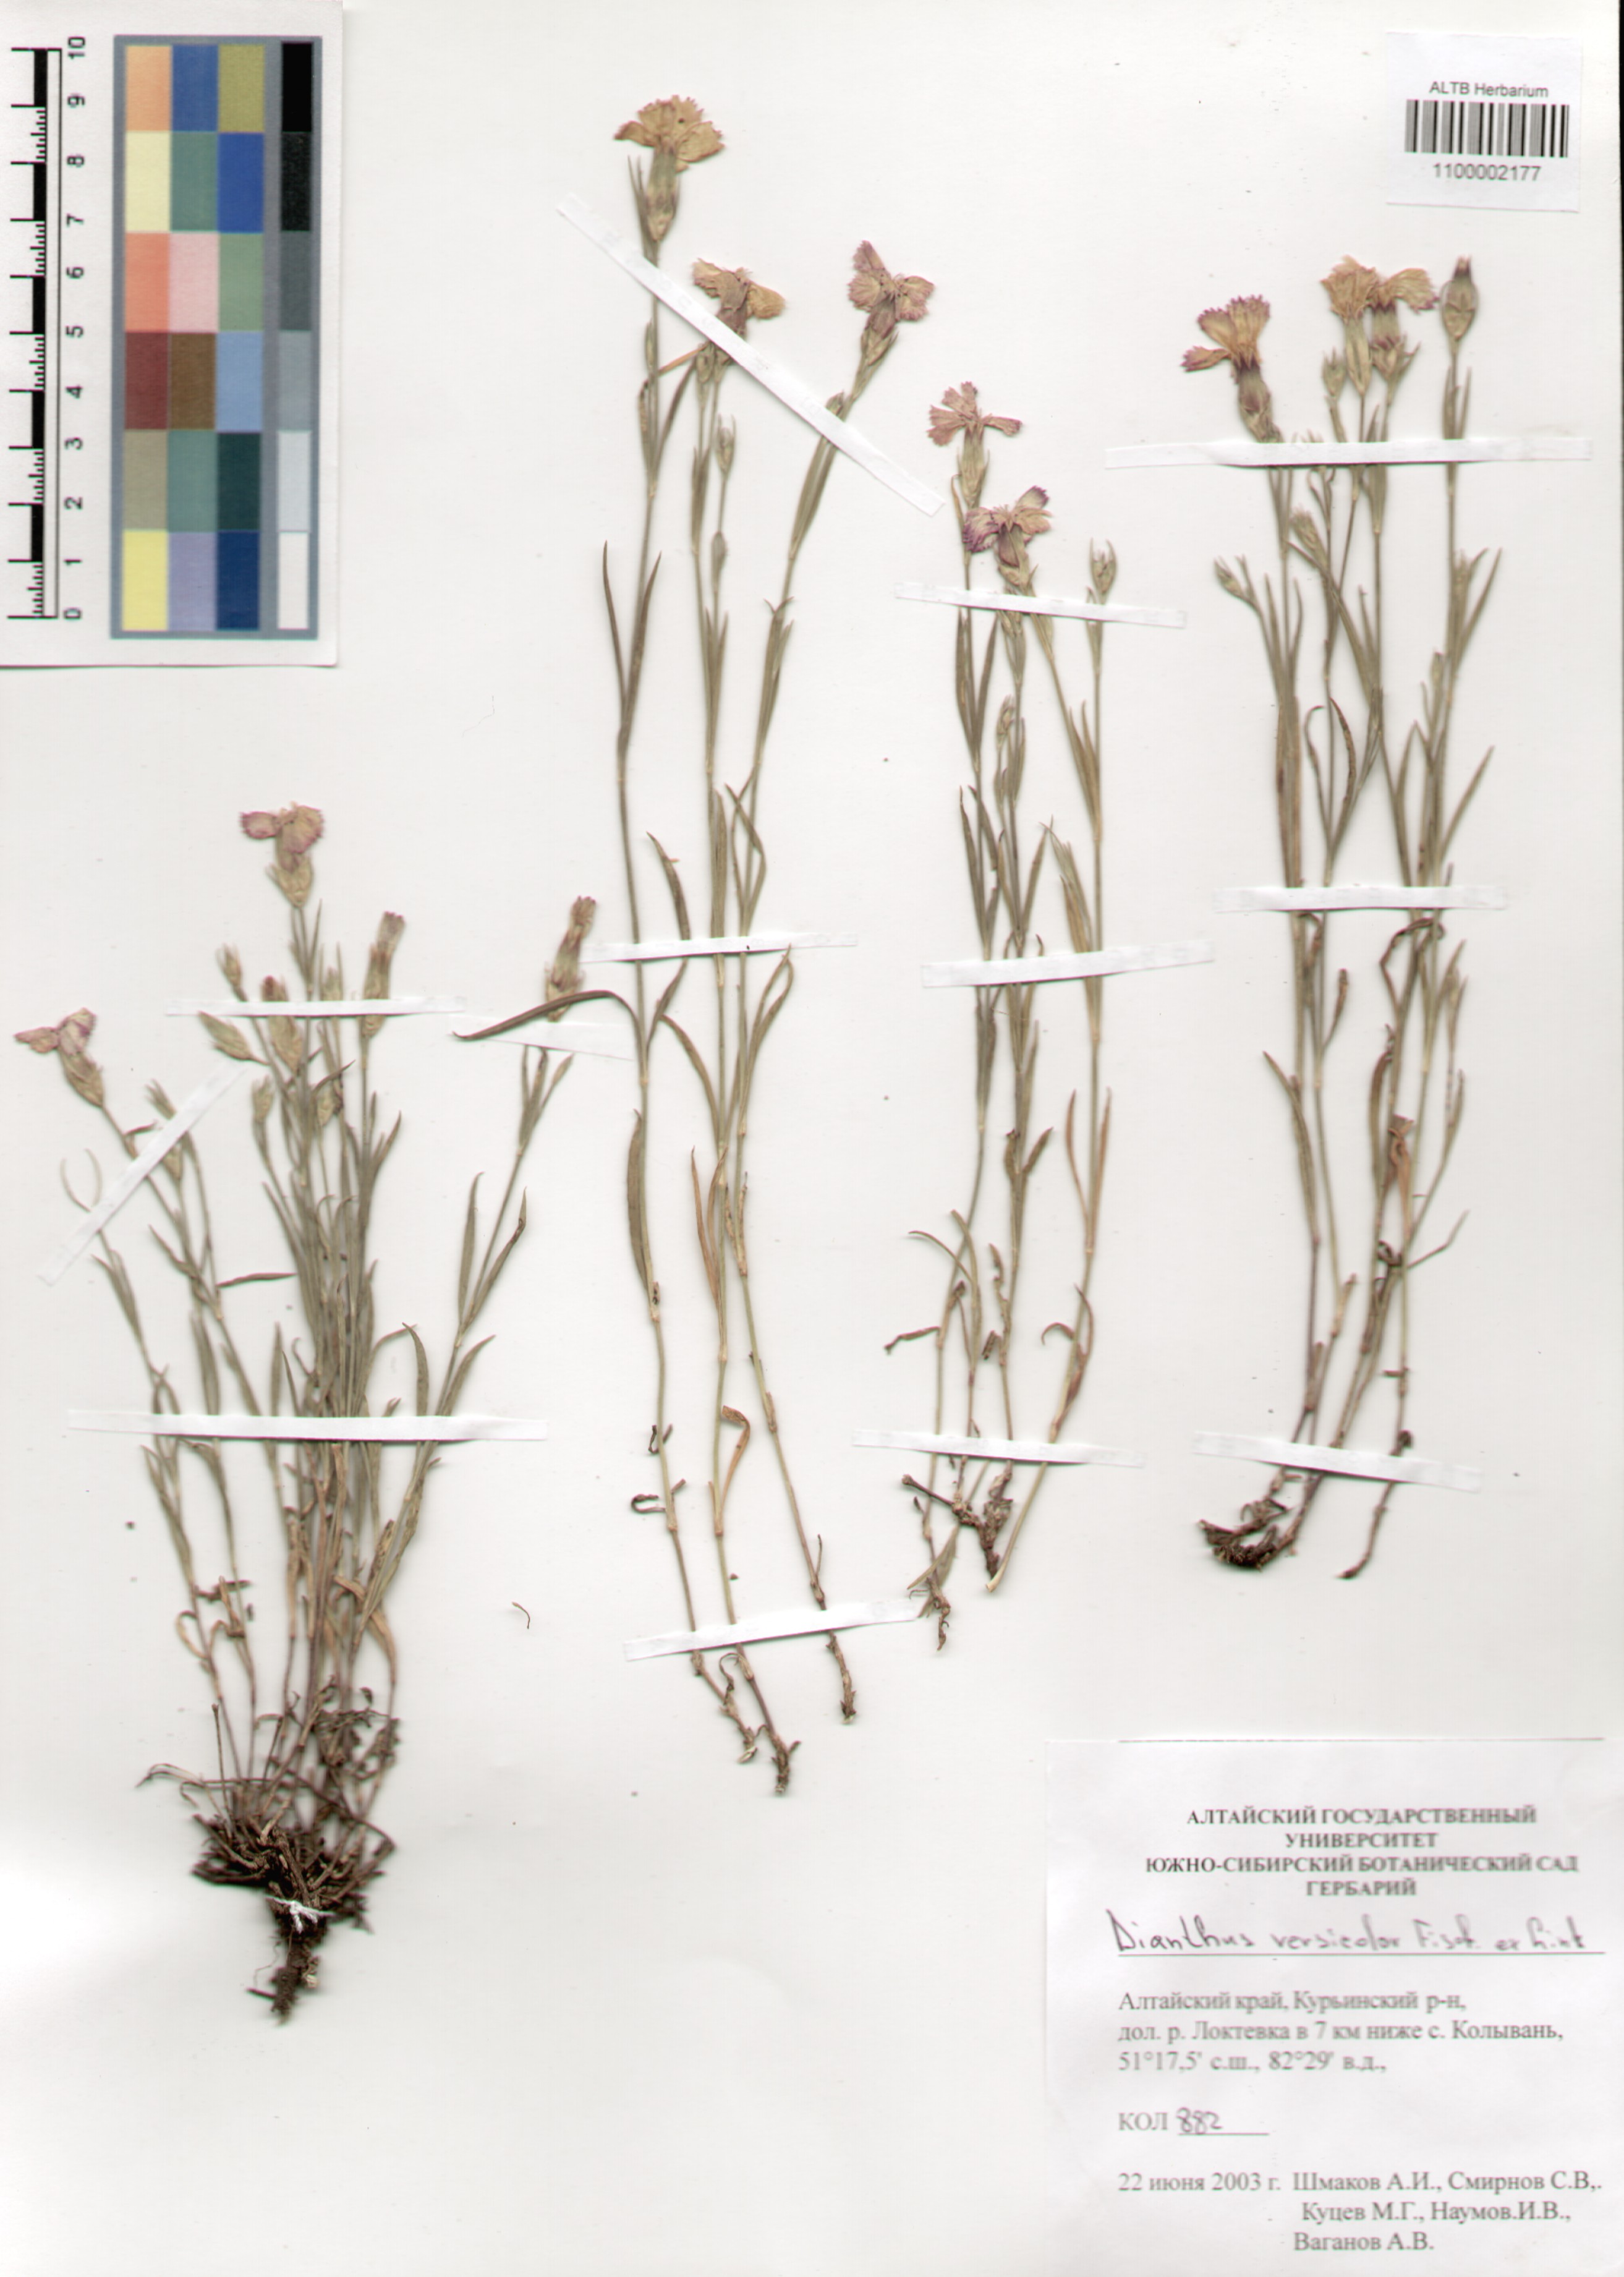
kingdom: Plantae
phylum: Tracheophyta
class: Magnoliopsida
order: Caryophyllales
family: Caryophyllaceae
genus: Dianthus
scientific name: Dianthus chinensis
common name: Rainbow pink
